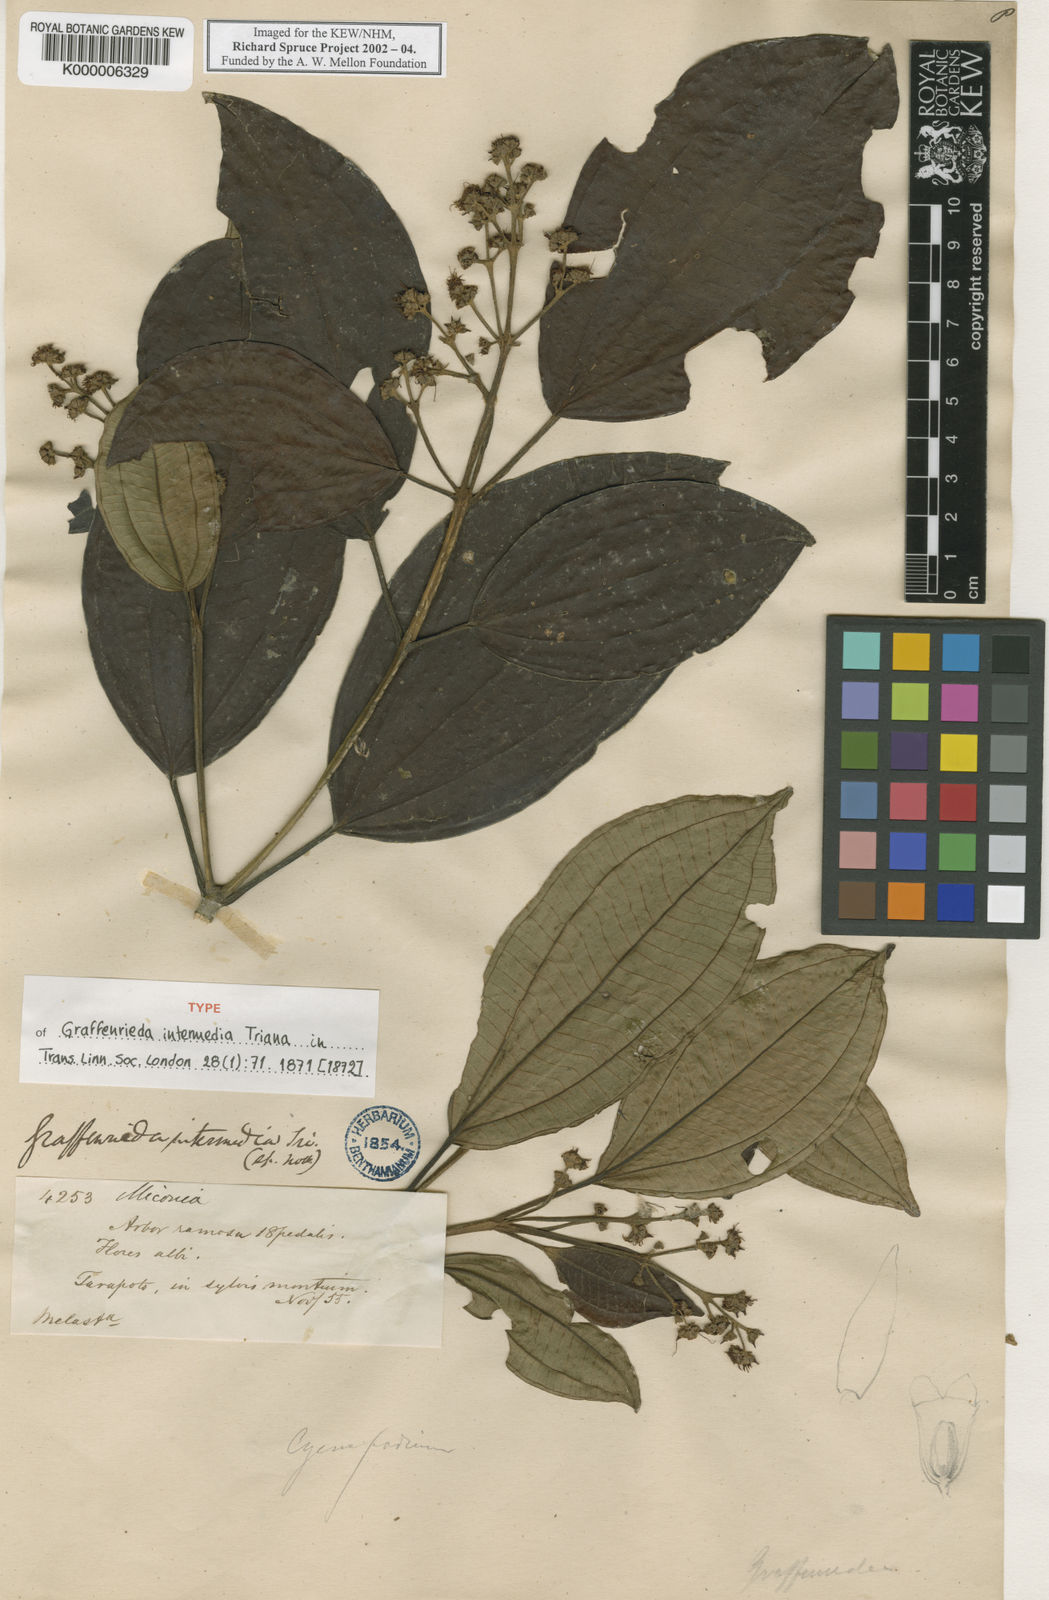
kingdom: Plantae
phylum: Tracheophyta
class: Magnoliopsida
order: Myrtales
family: Melastomataceae
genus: Graffenrieda
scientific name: Graffenrieda intermedia
